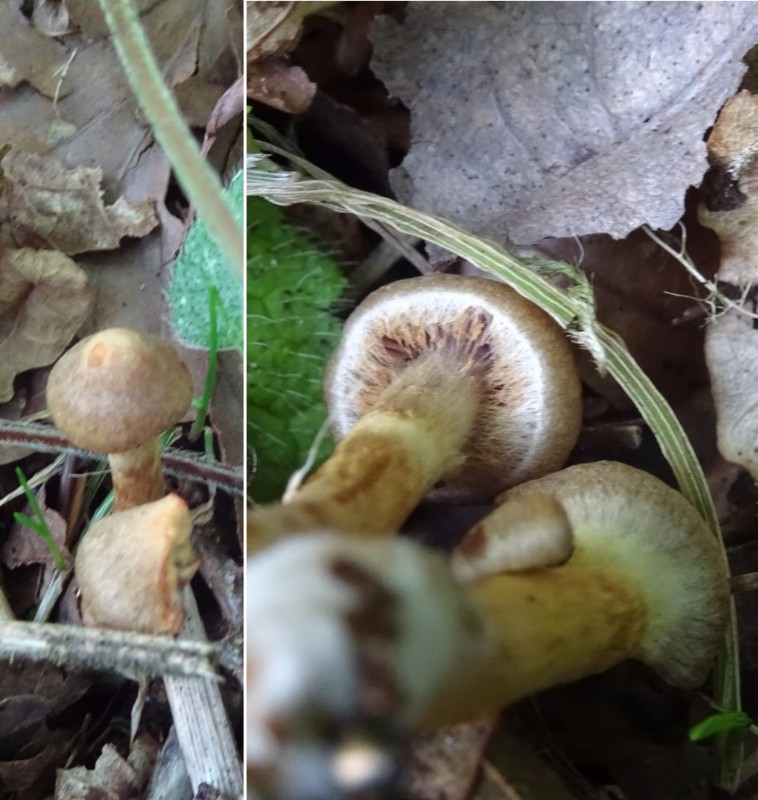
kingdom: Fungi
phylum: Basidiomycota
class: Agaricomycetes
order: Agaricales
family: Cortinariaceae
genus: Cortinarius
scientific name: Cortinarius hinnuleus
